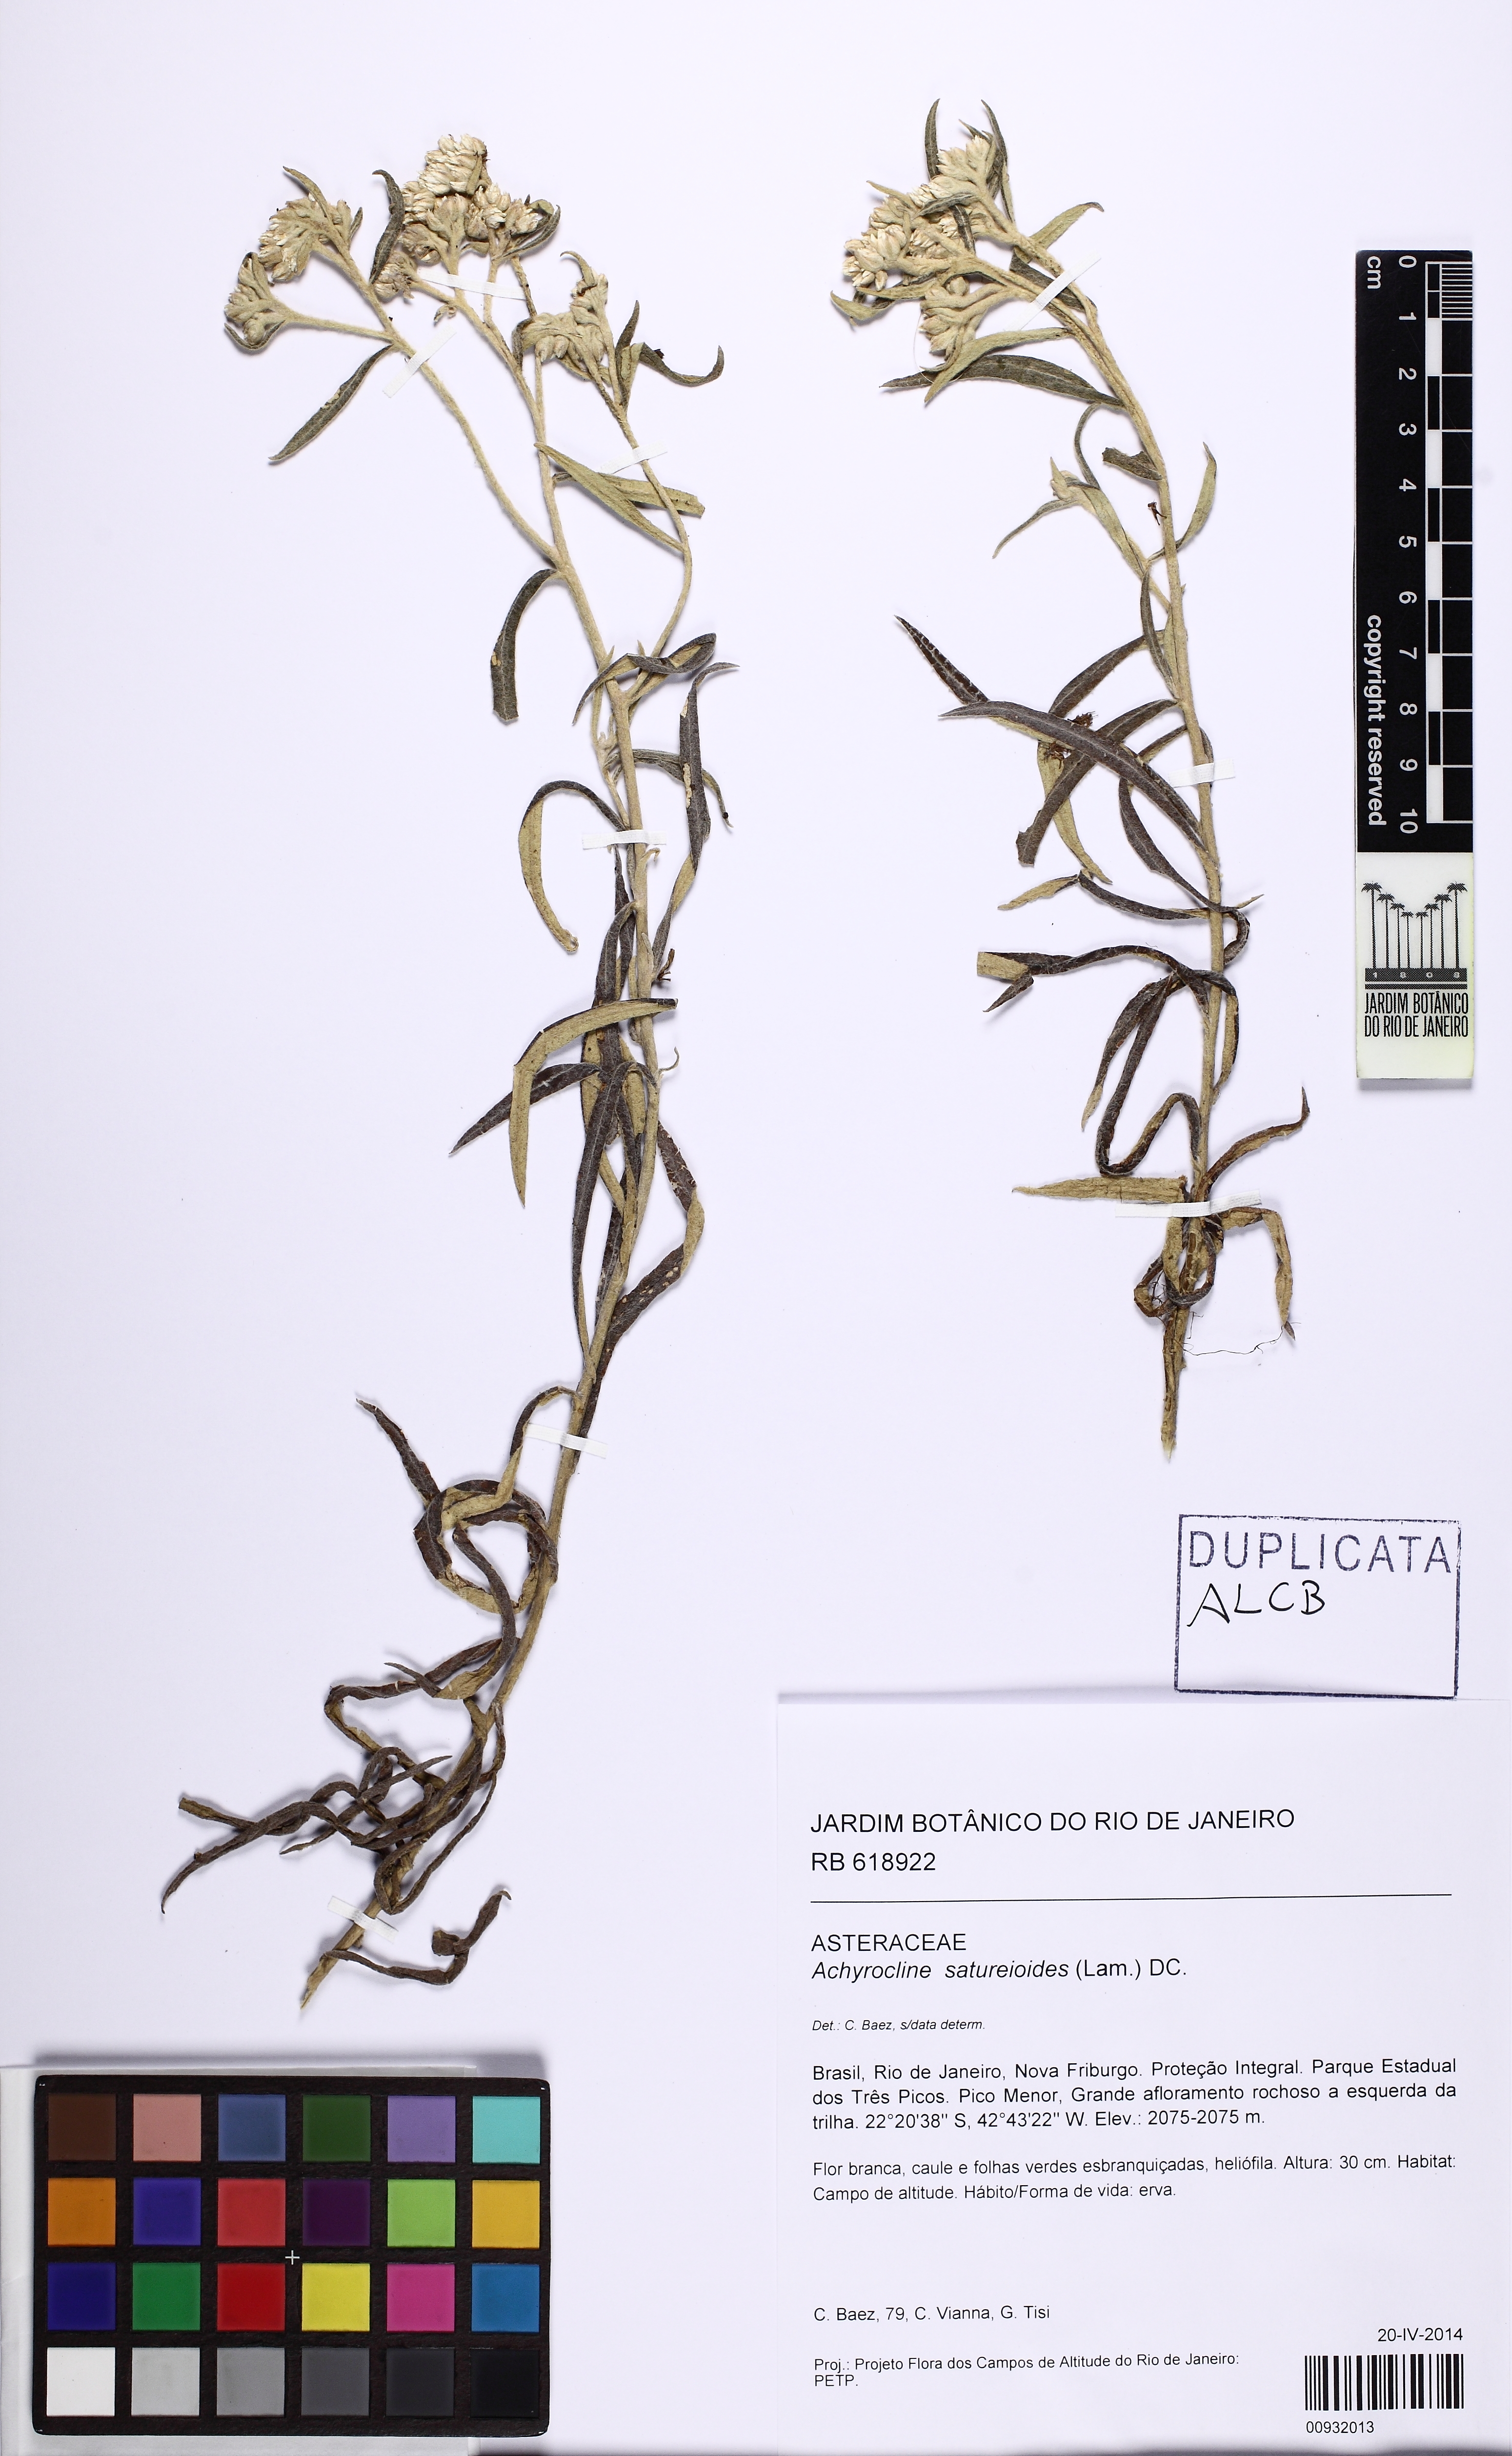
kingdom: Plantae
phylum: Tracheophyta
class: Magnoliopsida
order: Asterales
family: Asteraceae
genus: Achyrocline
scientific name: Achyrocline satureioides
